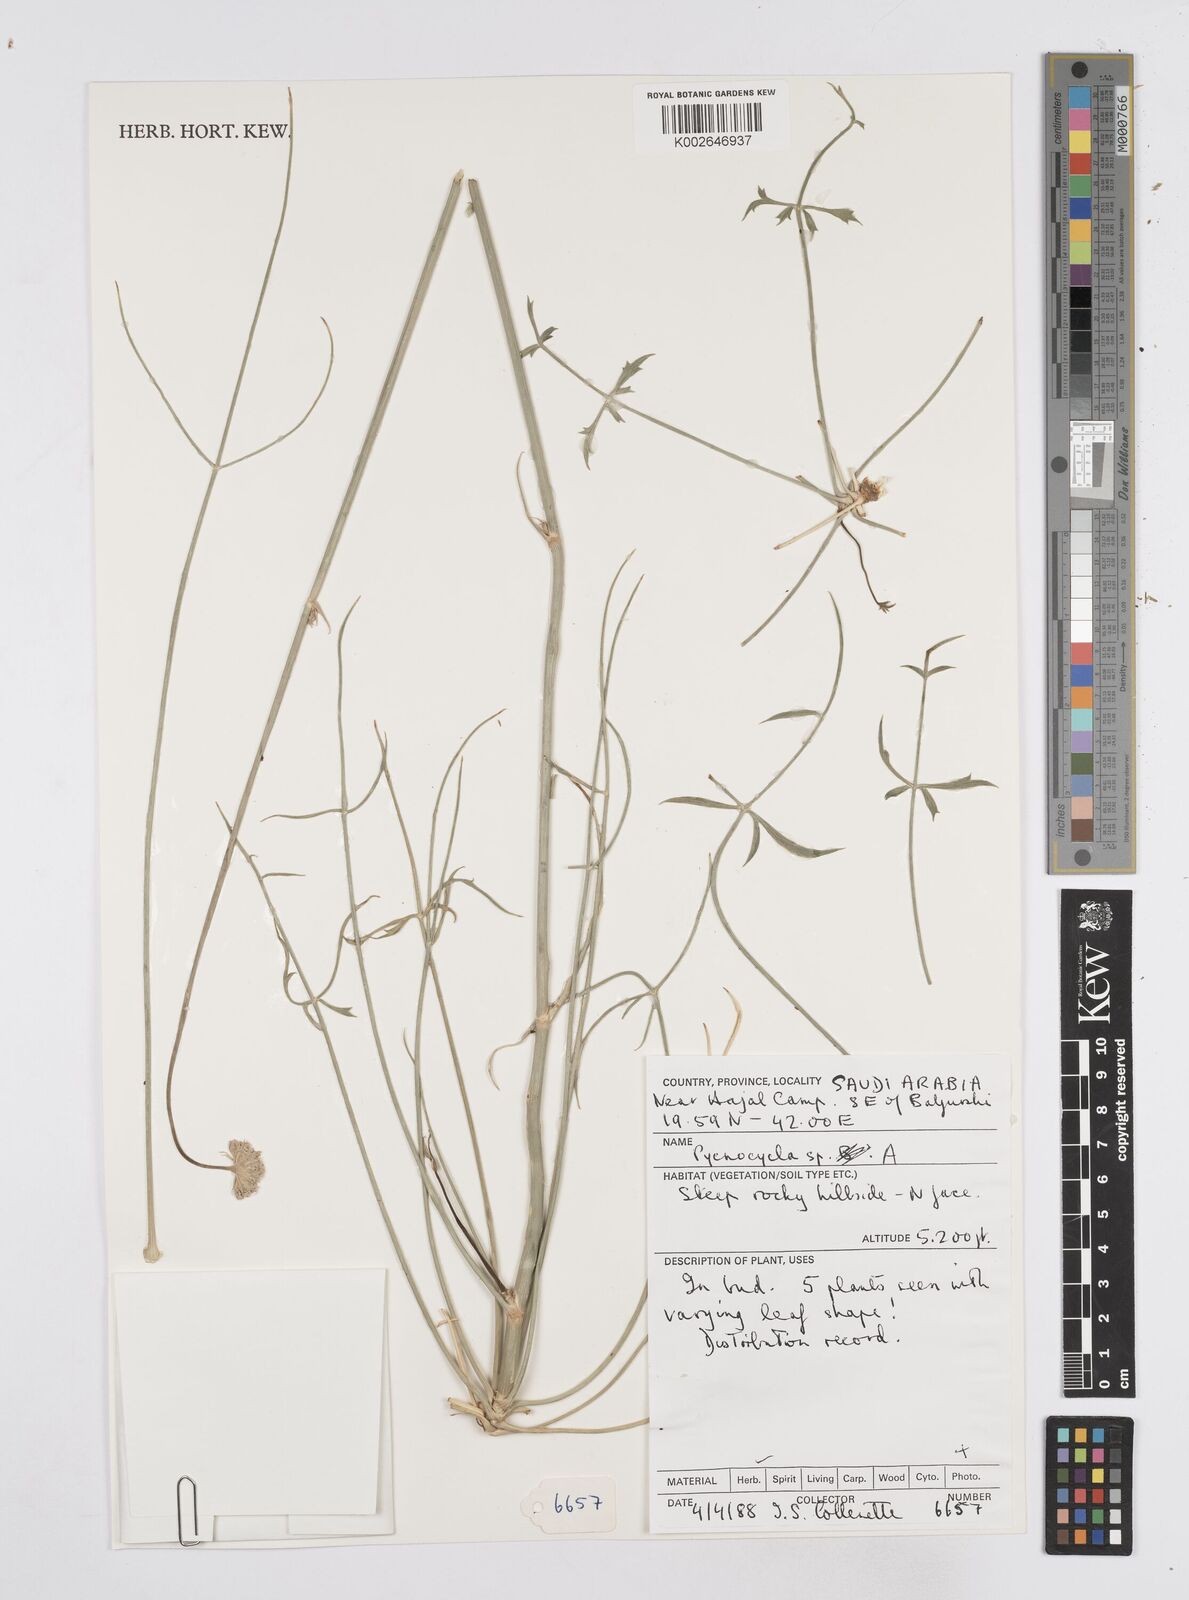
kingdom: Plantae
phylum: Tracheophyta
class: Magnoliopsida
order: Apiales
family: Apiaceae
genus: Pycnocycla
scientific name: Pycnocycla flabellifolia
